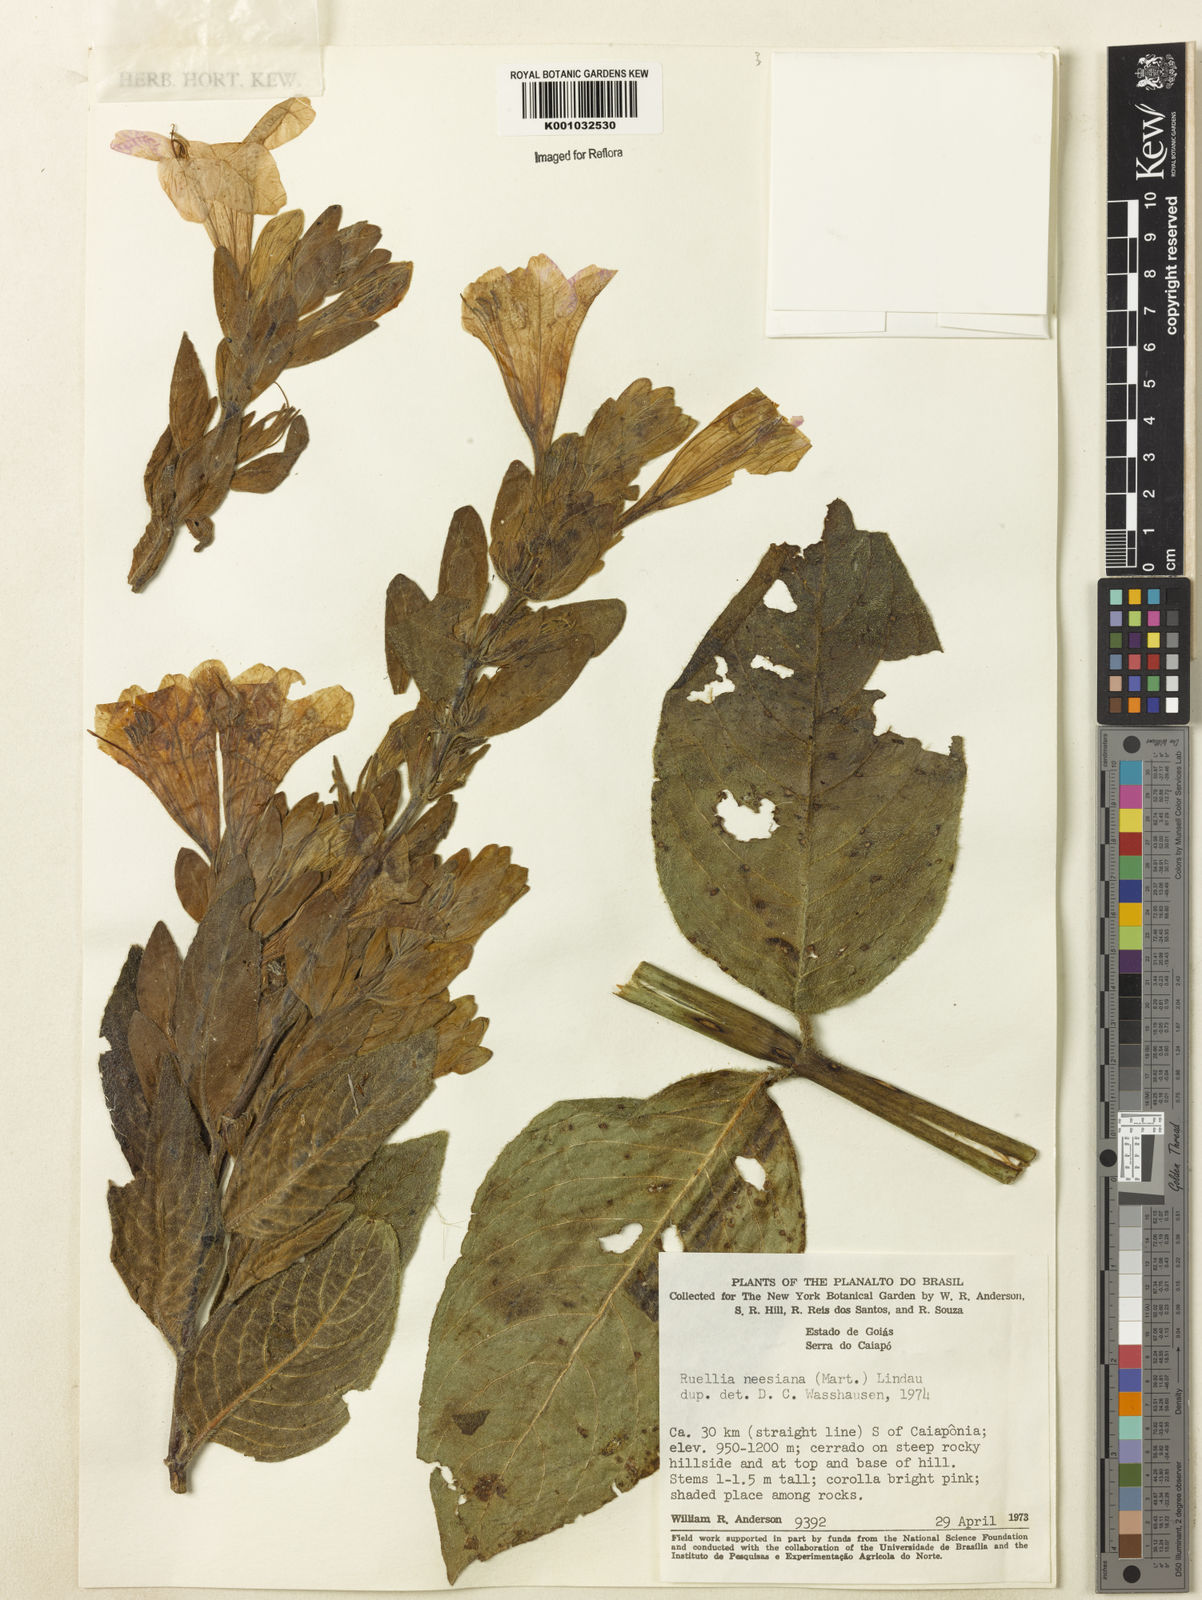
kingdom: Plantae
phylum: Tracheophyta
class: Magnoliopsida
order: Lamiales
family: Acanthaceae
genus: Ruellia
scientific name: Ruellia
